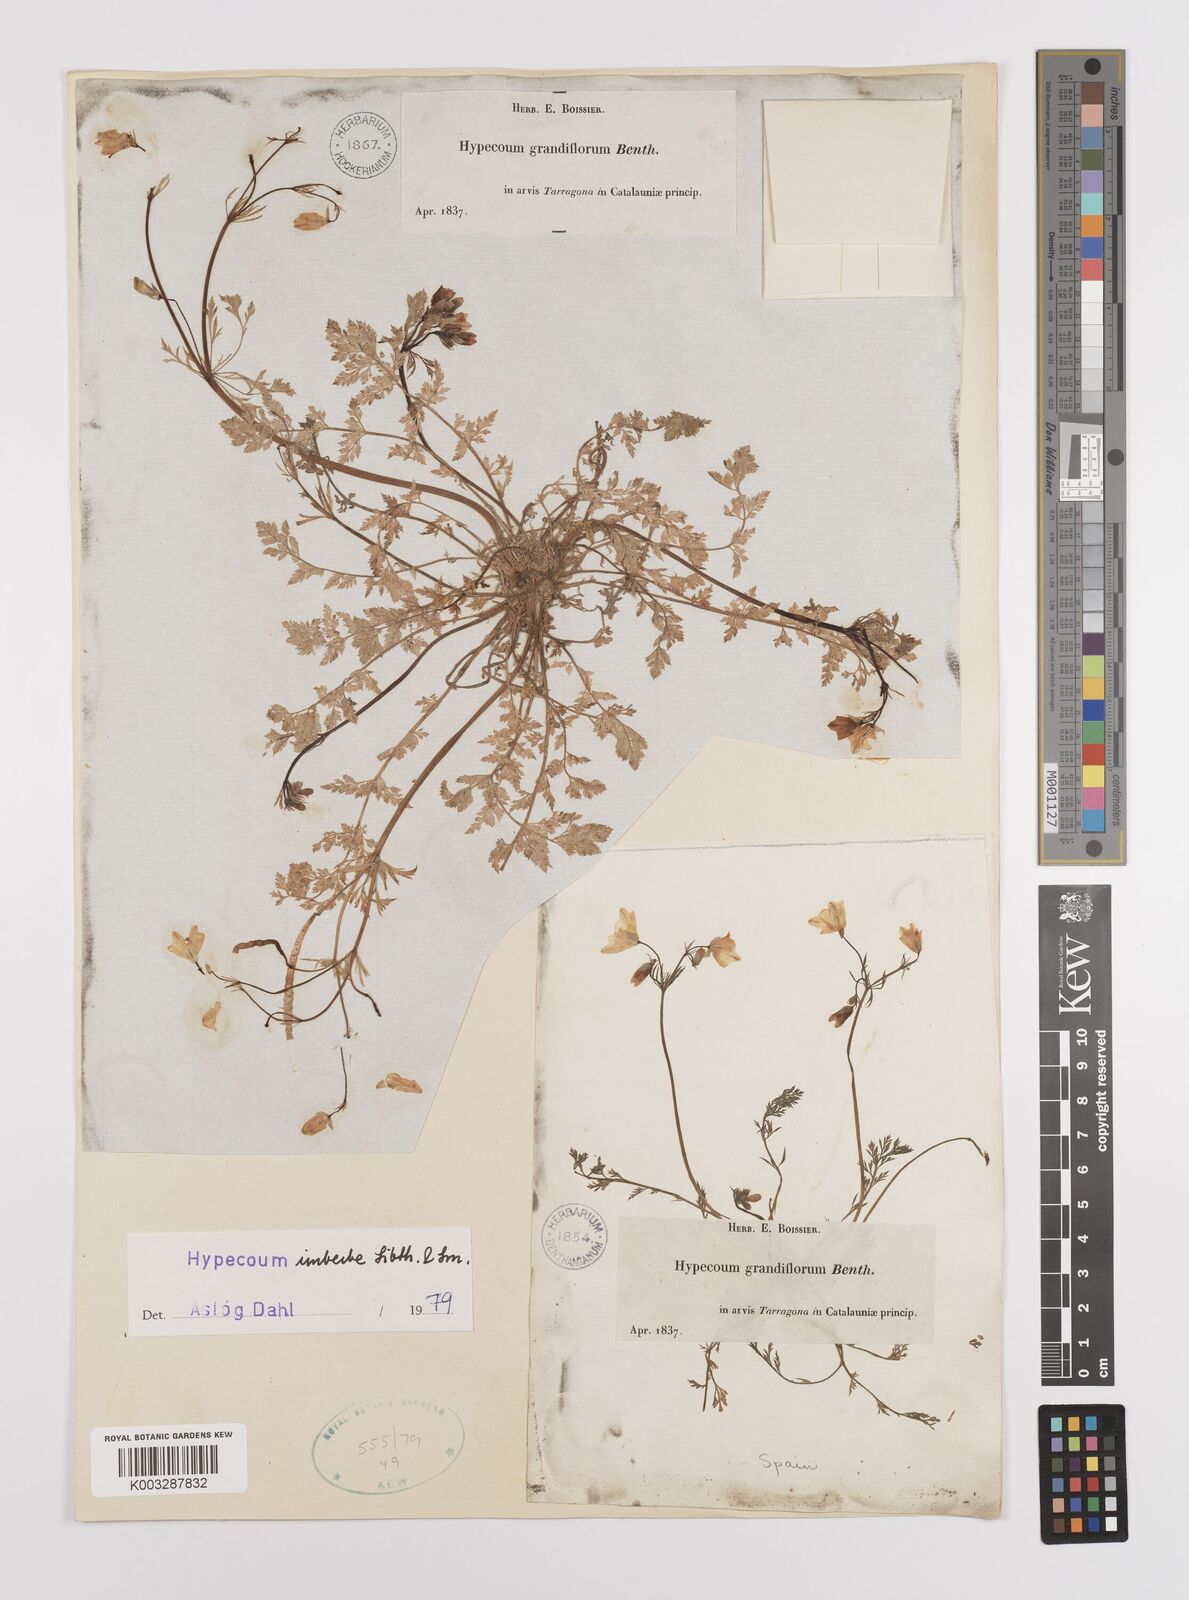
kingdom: Plantae
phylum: Tracheophyta
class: Magnoliopsida
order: Ranunculales
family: Papaveraceae
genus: Hypecoum
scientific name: Hypecoum imberbe
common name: Sicklefruit hypecoum
